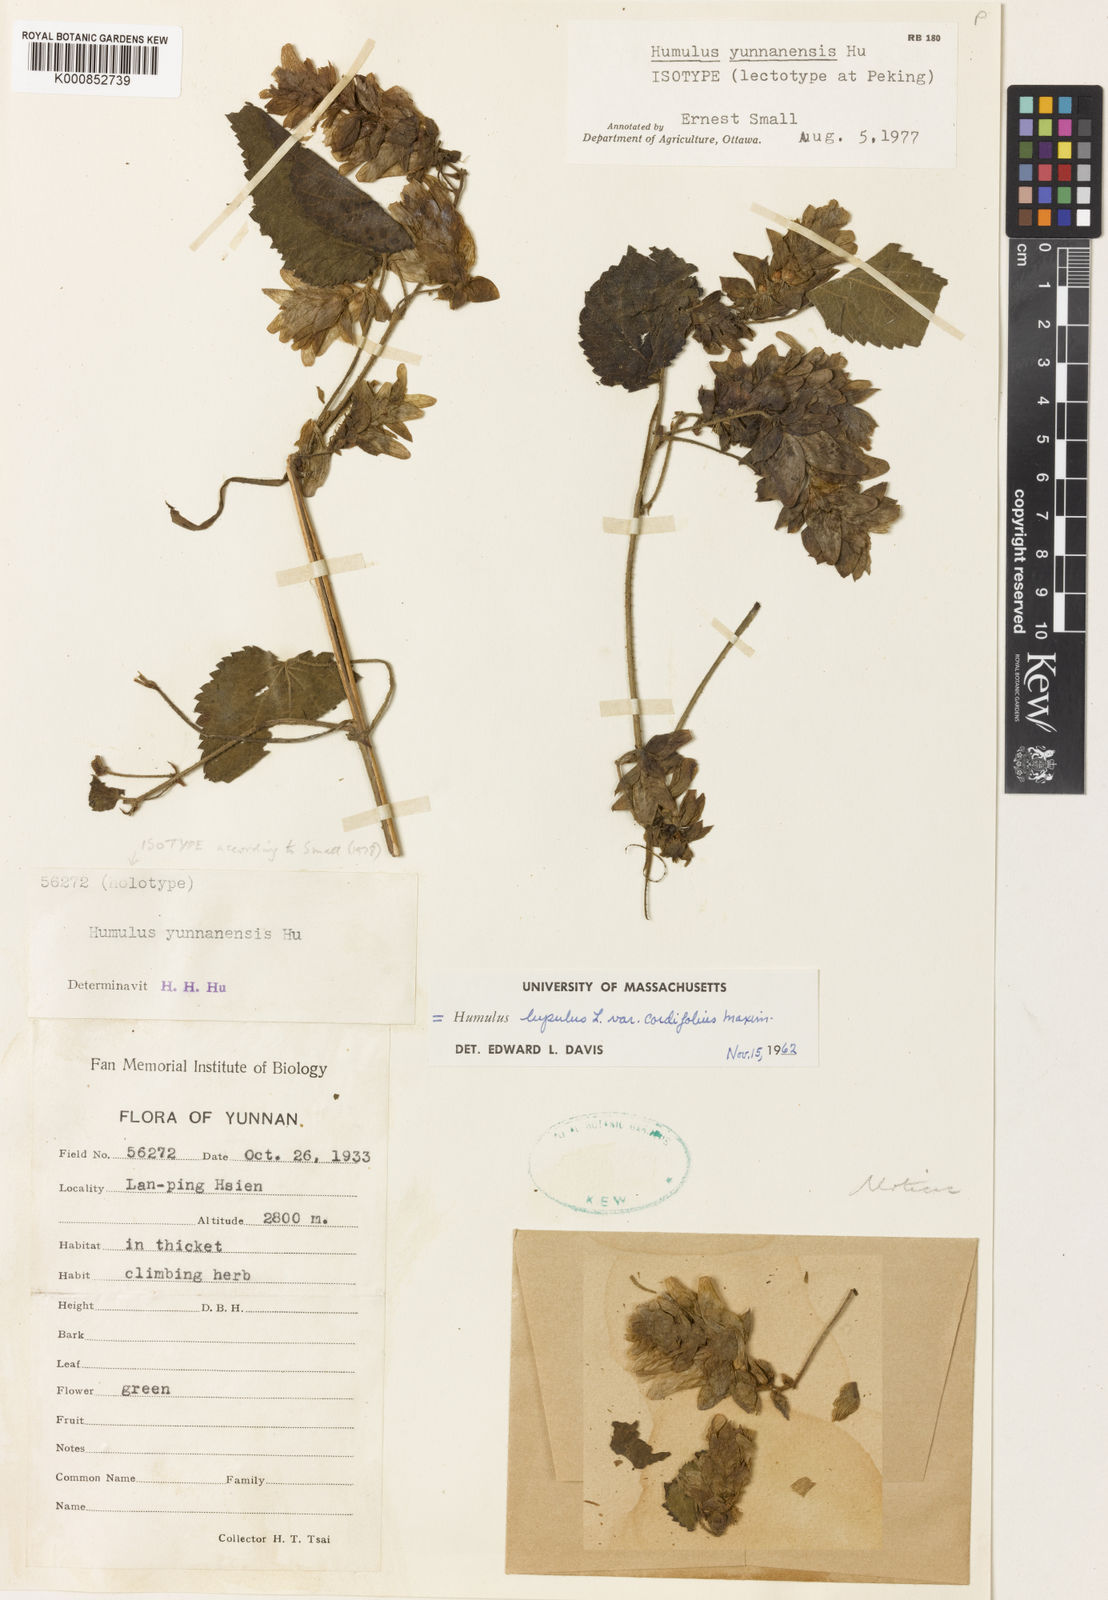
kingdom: Plantae
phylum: Tracheophyta
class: Magnoliopsida
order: Rosales
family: Cannabaceae
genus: Humulus
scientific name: Humulus lupulus
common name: Hop
